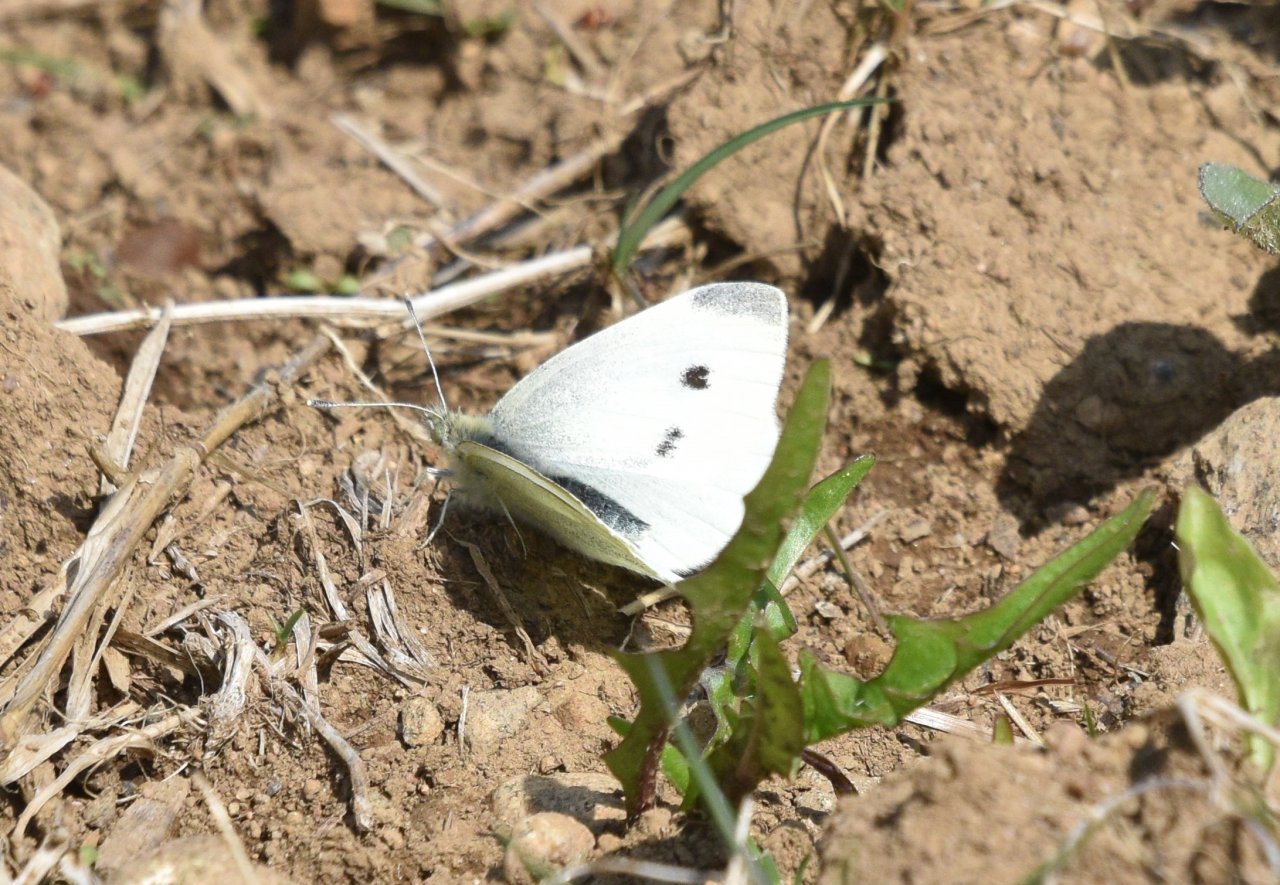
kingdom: Animalia
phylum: Arthropoda
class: Insecta
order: Lepidoptera
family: Pieridae
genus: Pieris
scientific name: Pieris rapae
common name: Cabbage White
